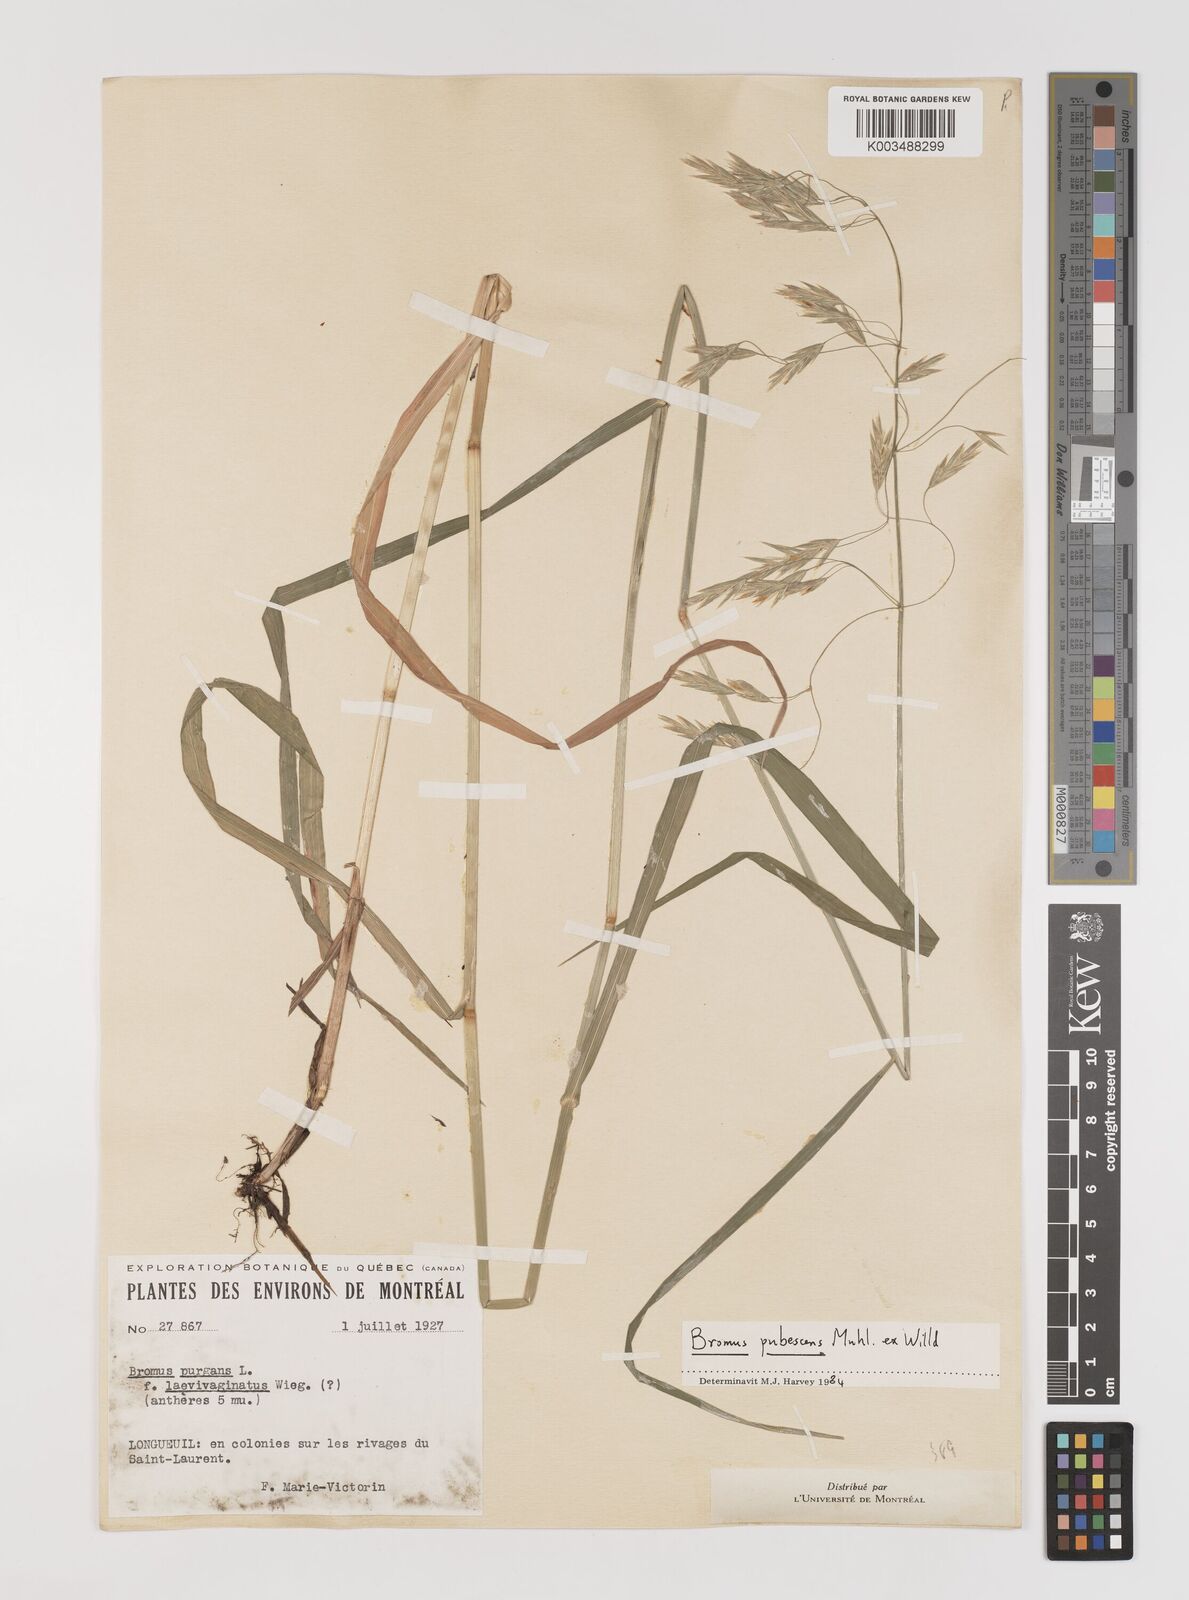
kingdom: Plantae
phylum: Tracheophyta
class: Liliopsida
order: Poales
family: Poaceae
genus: Bromus
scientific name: Bromus pubescens
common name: Hairy wood brome grass
